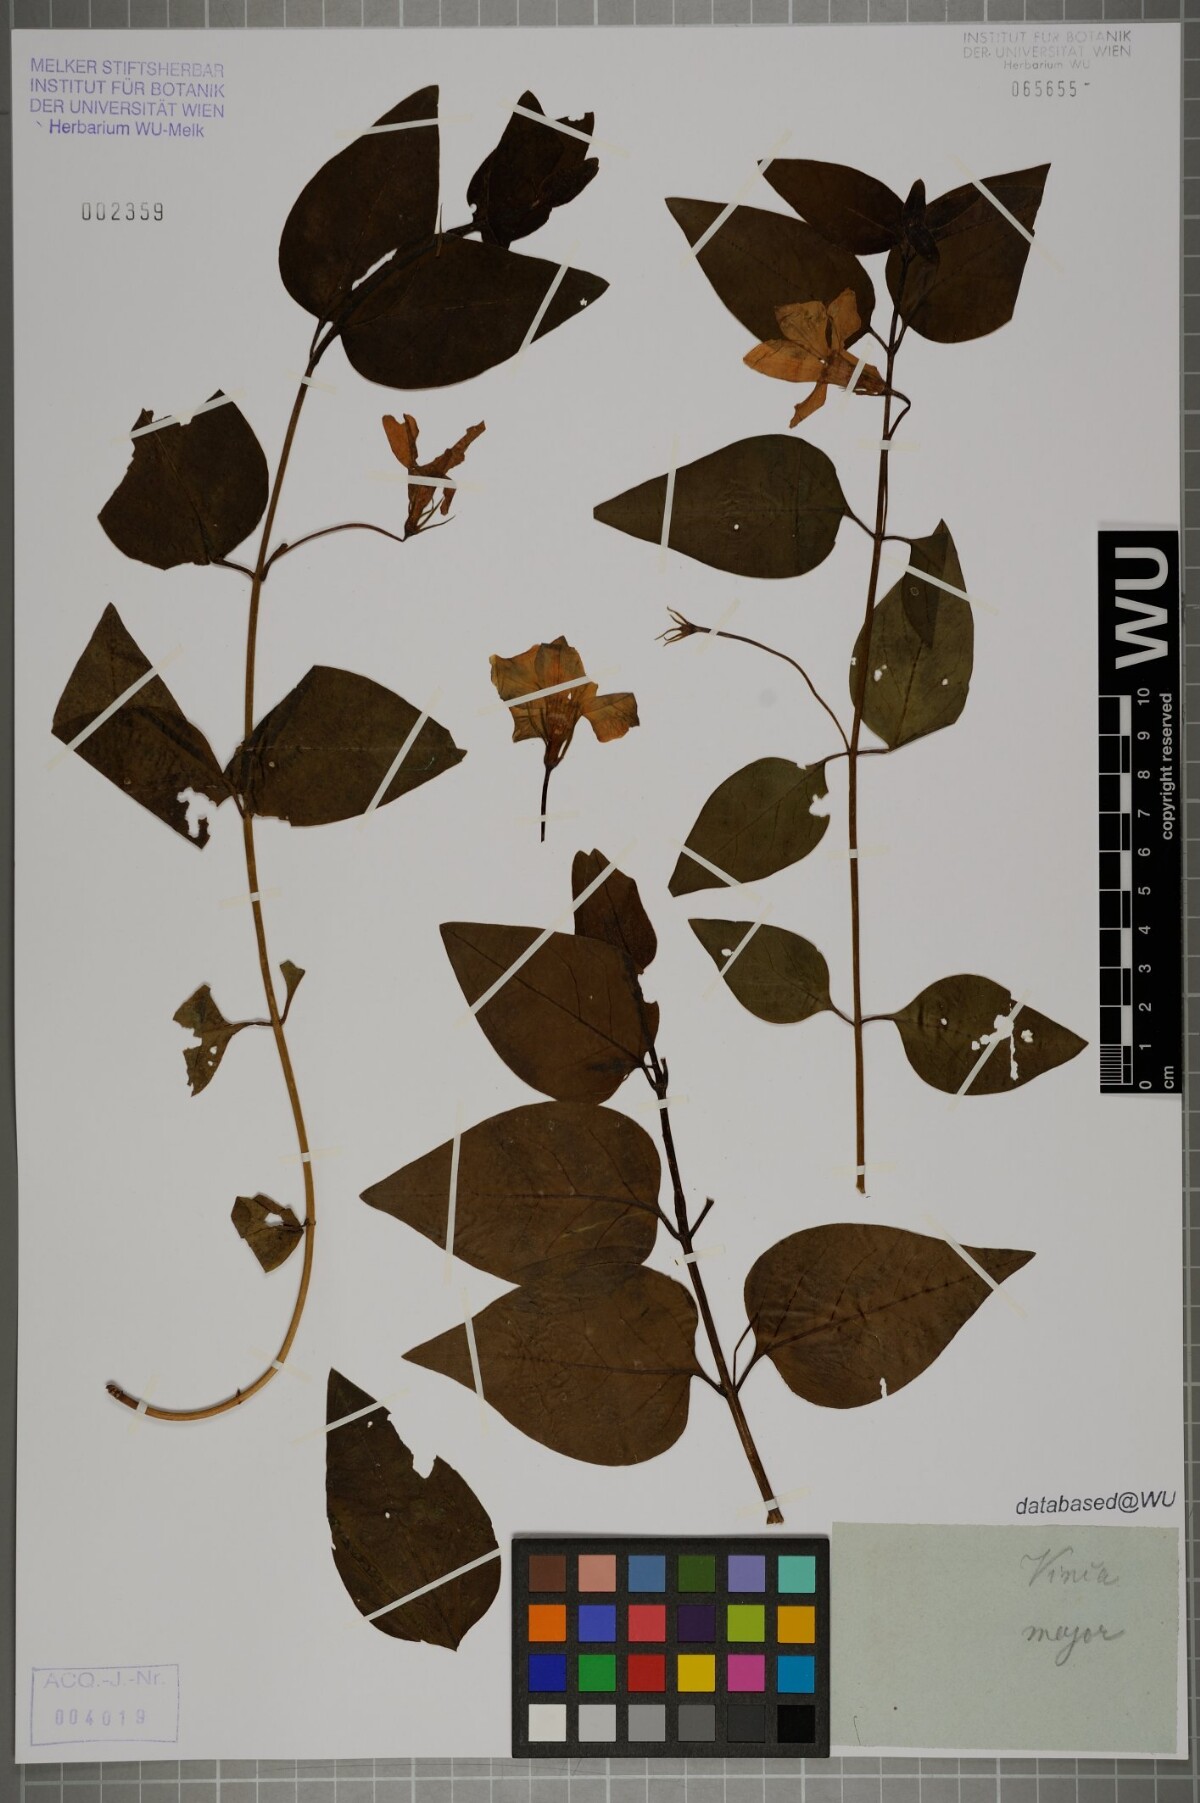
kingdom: Plantae
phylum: Tracheophyta
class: Magnoliopsida
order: Gentianales
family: Apocynaceae
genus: Vinca
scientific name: Vinca major
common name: Greater periwinkle
